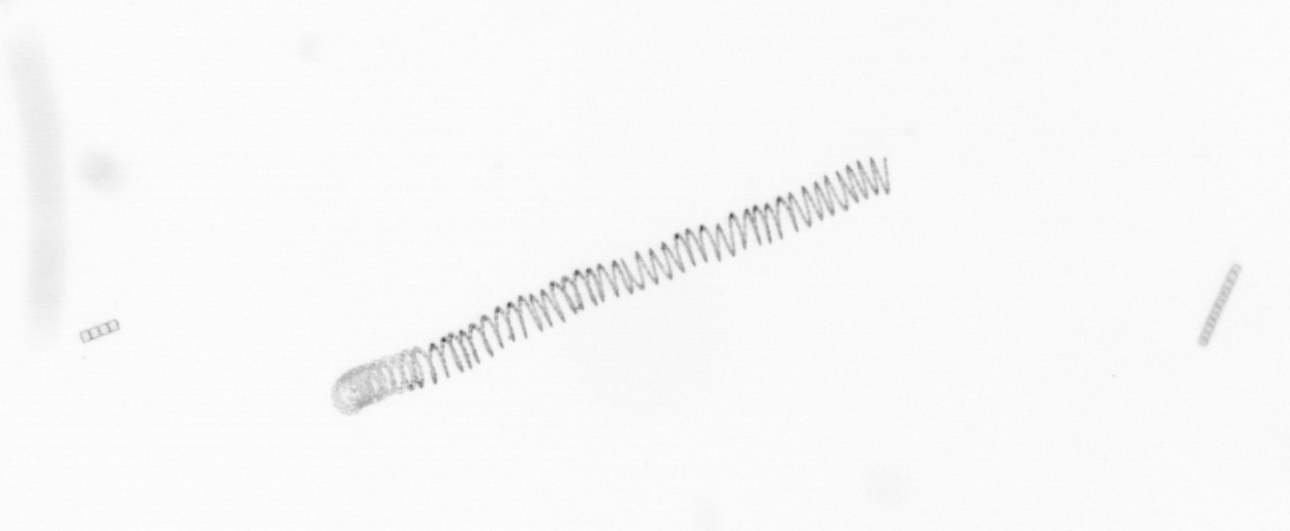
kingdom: Chromista
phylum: Ochrophyta
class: Bacillariophyceae
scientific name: Bacillariophyceae
